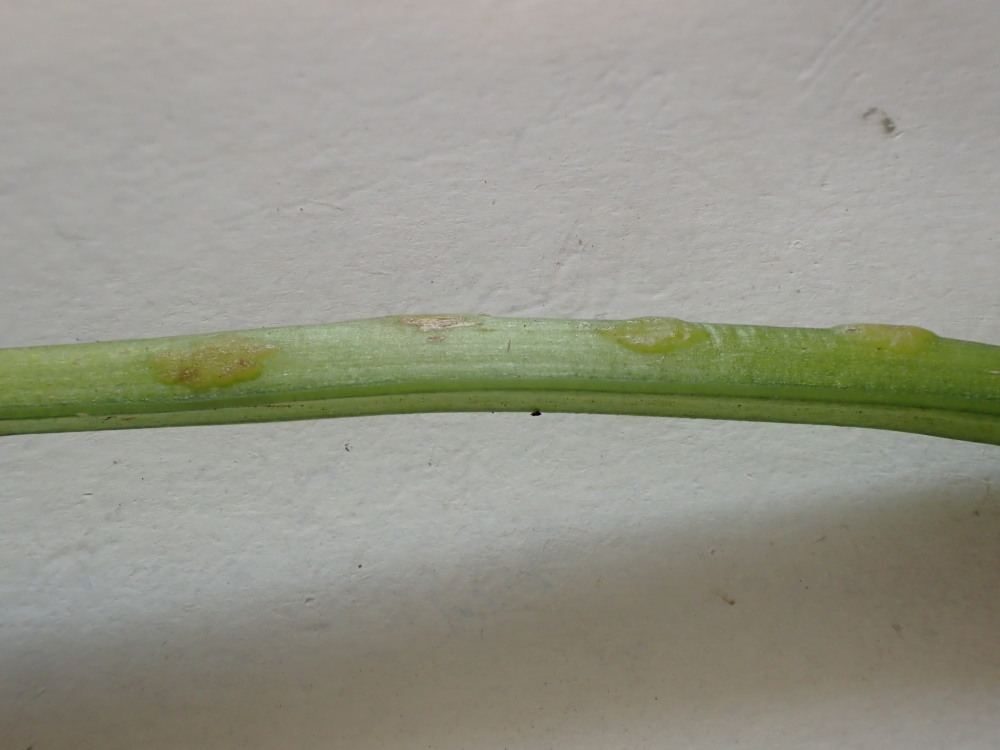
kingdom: Fungi
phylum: Ascomycota
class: Taphrinomycetes
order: Taphrinales
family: Taphrinaceae
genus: Protomyces
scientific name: Protomyces macrosporus
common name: skvalderkål-vablesæk
